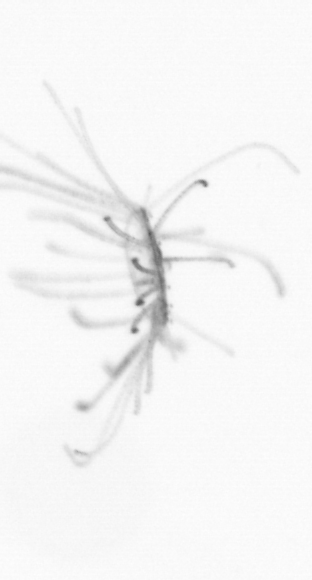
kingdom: Animalia
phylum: Cnidaria
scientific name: Cnidaria
